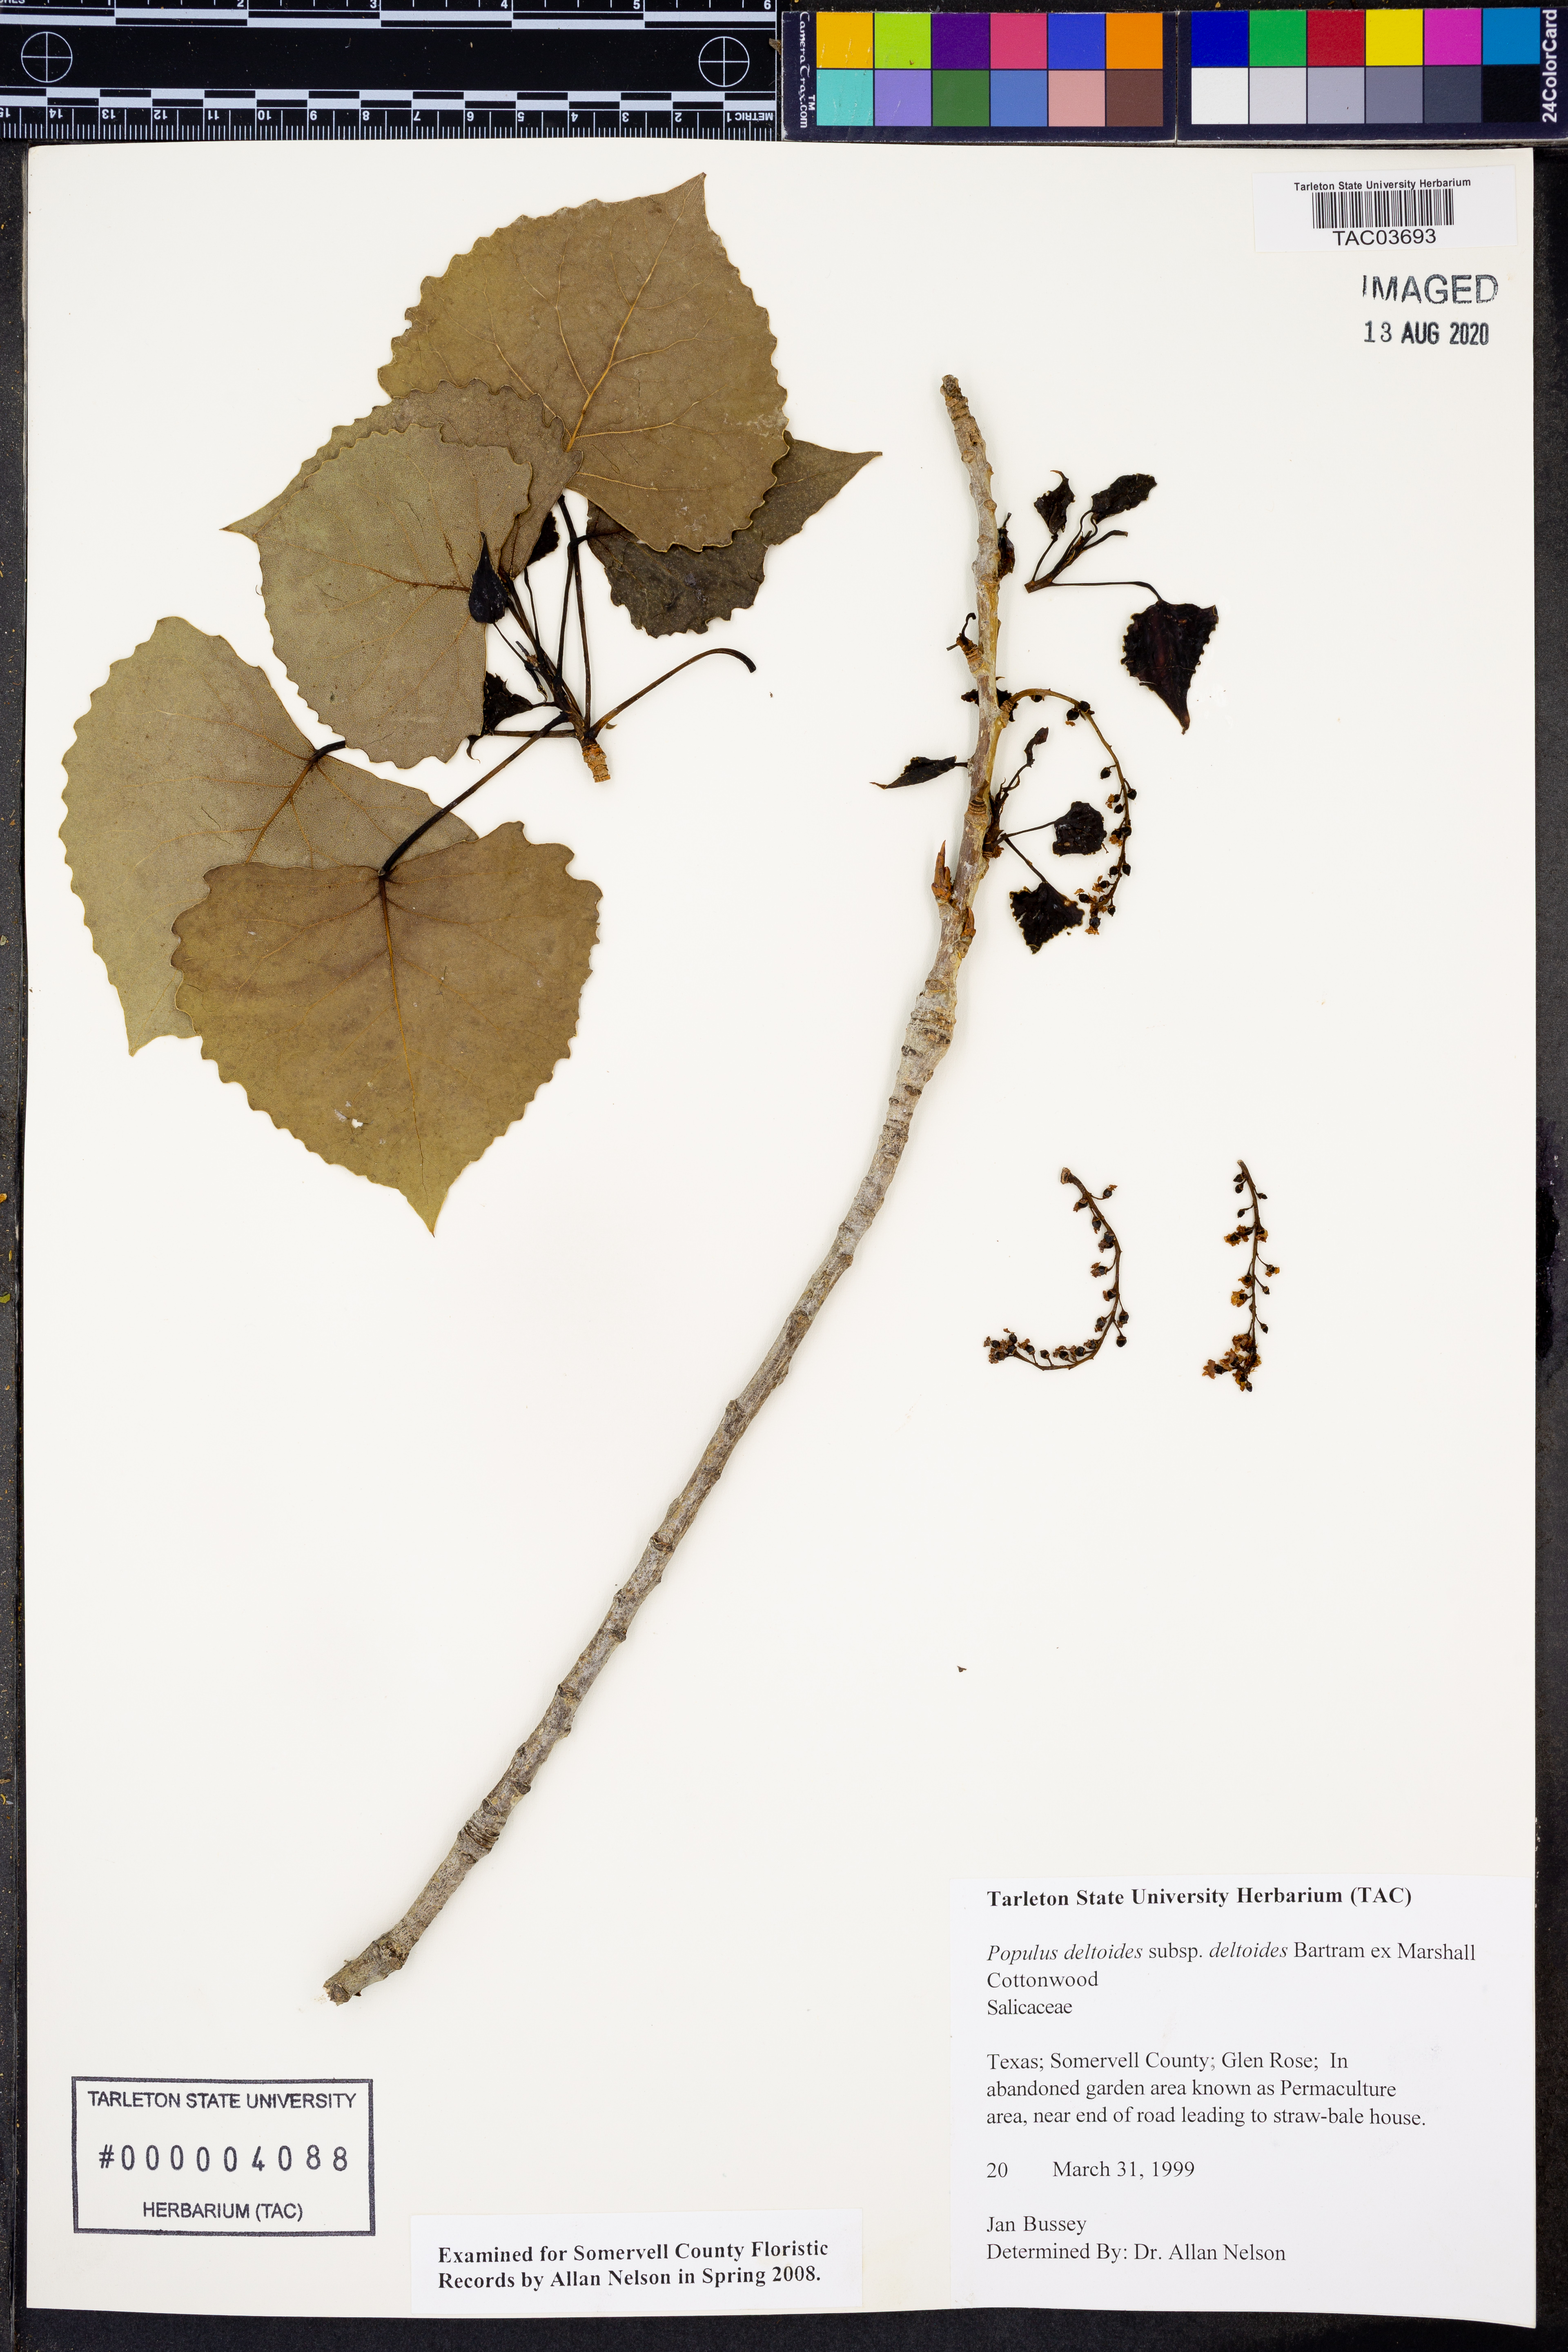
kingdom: Plantae
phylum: Tracheophyta
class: Magnoliopsida
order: Malpighiales
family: Salicaceae
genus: Populus
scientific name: Populus deltoides
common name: Eastern cottonwood
